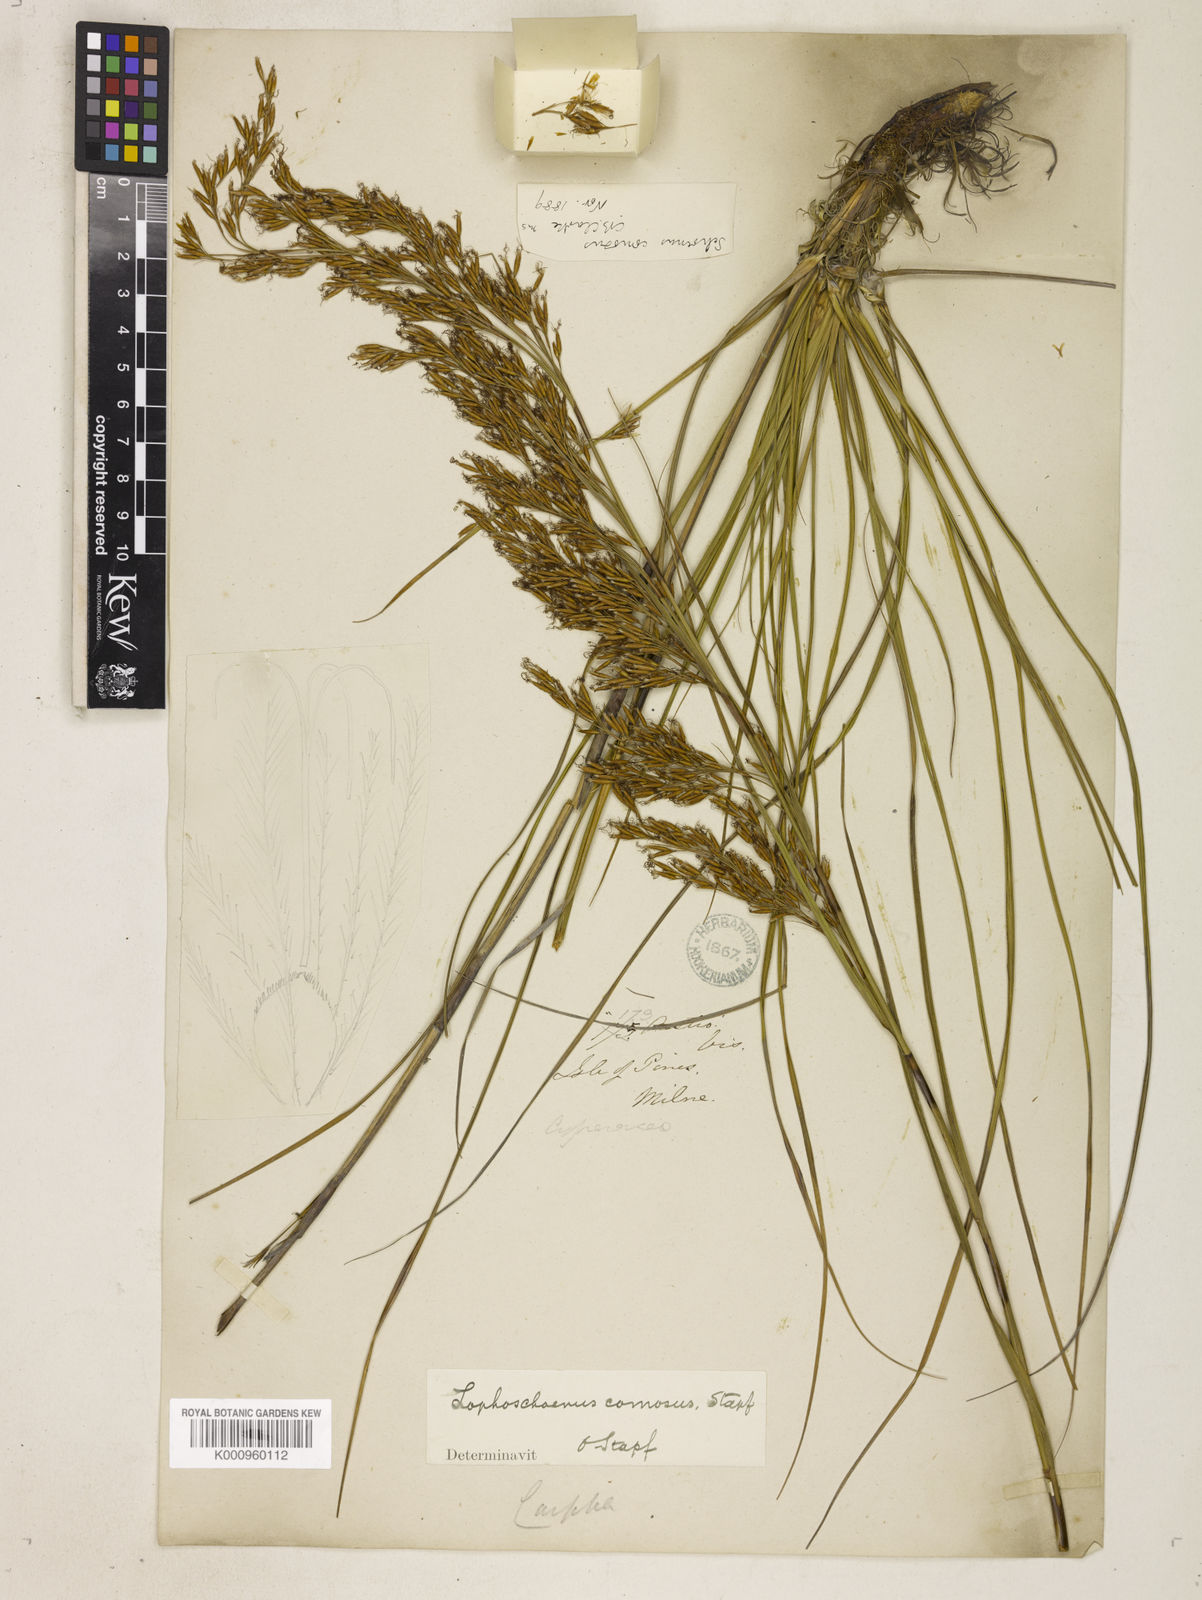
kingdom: Plantae
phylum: Tracheophyta
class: Liliopsida
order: Poales
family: Cyperaceae
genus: Costularia
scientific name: Costularia
